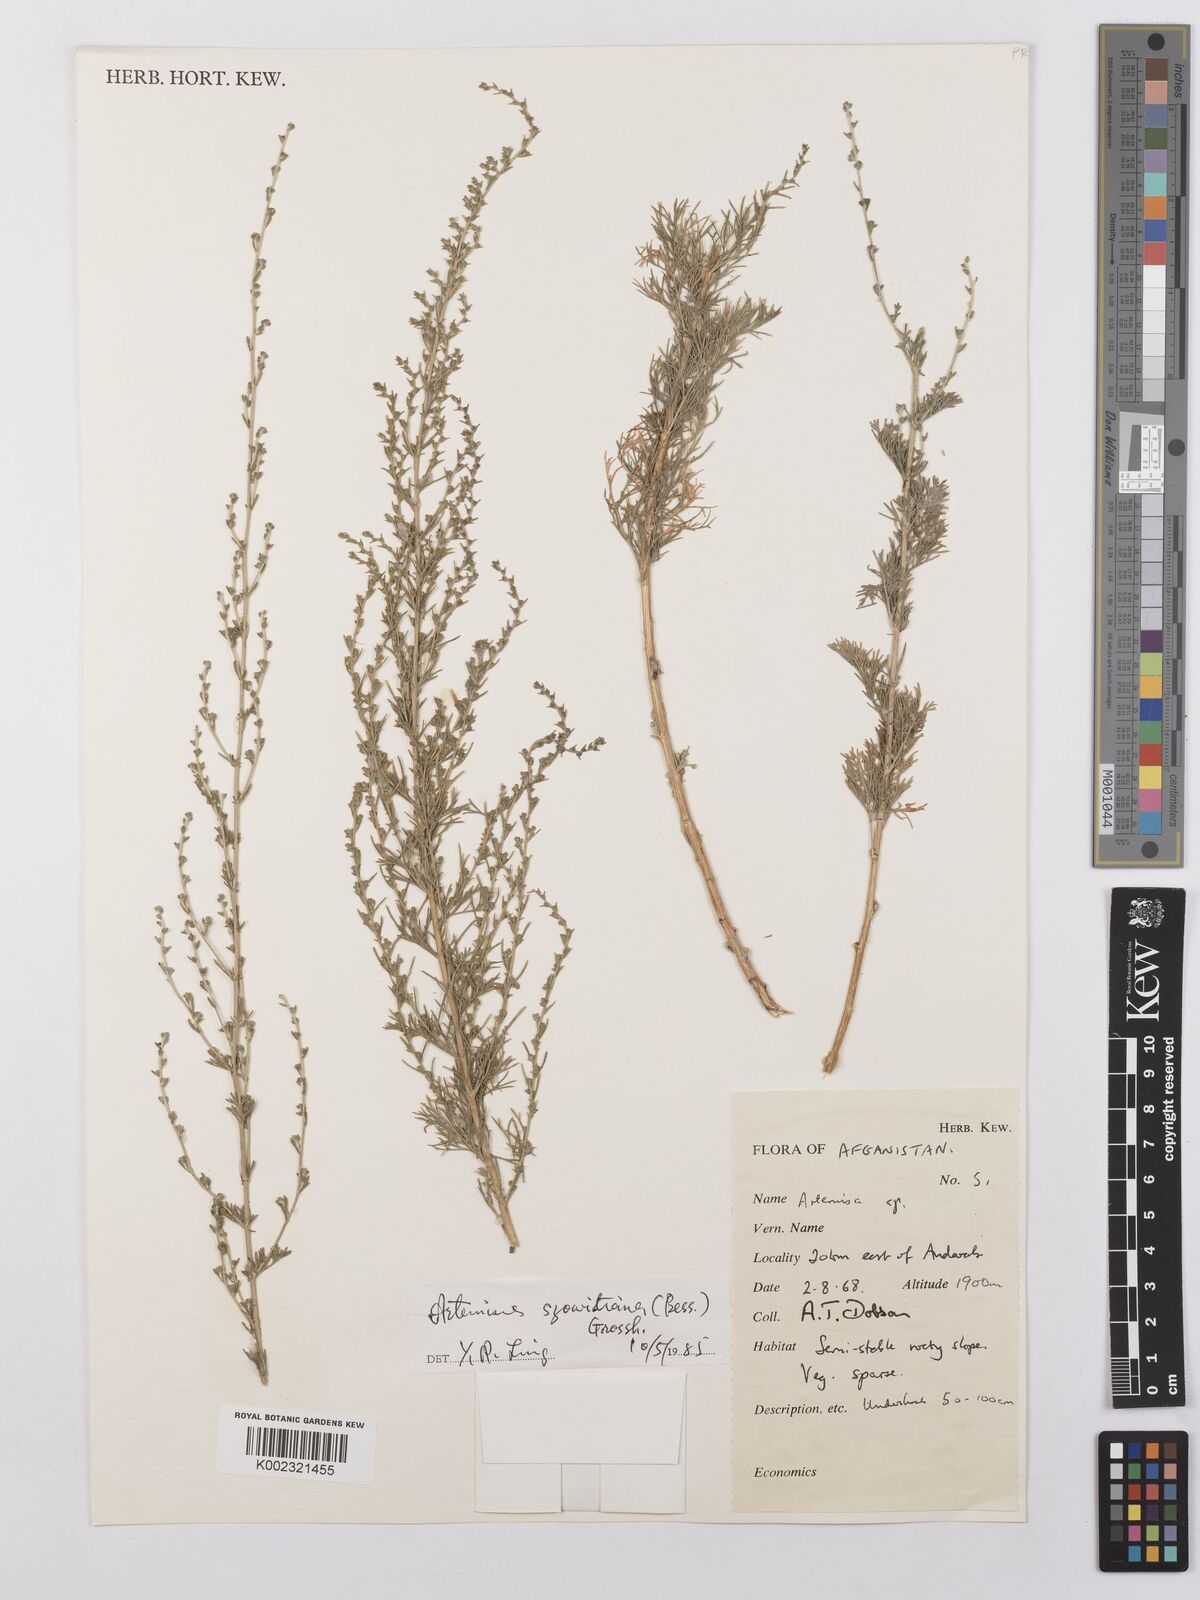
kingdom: Plantae
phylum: Tracheophyta
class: Magnoliopsida
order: Asterales
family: Asteraceae
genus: Artemisia
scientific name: Artemisia szowitziana
